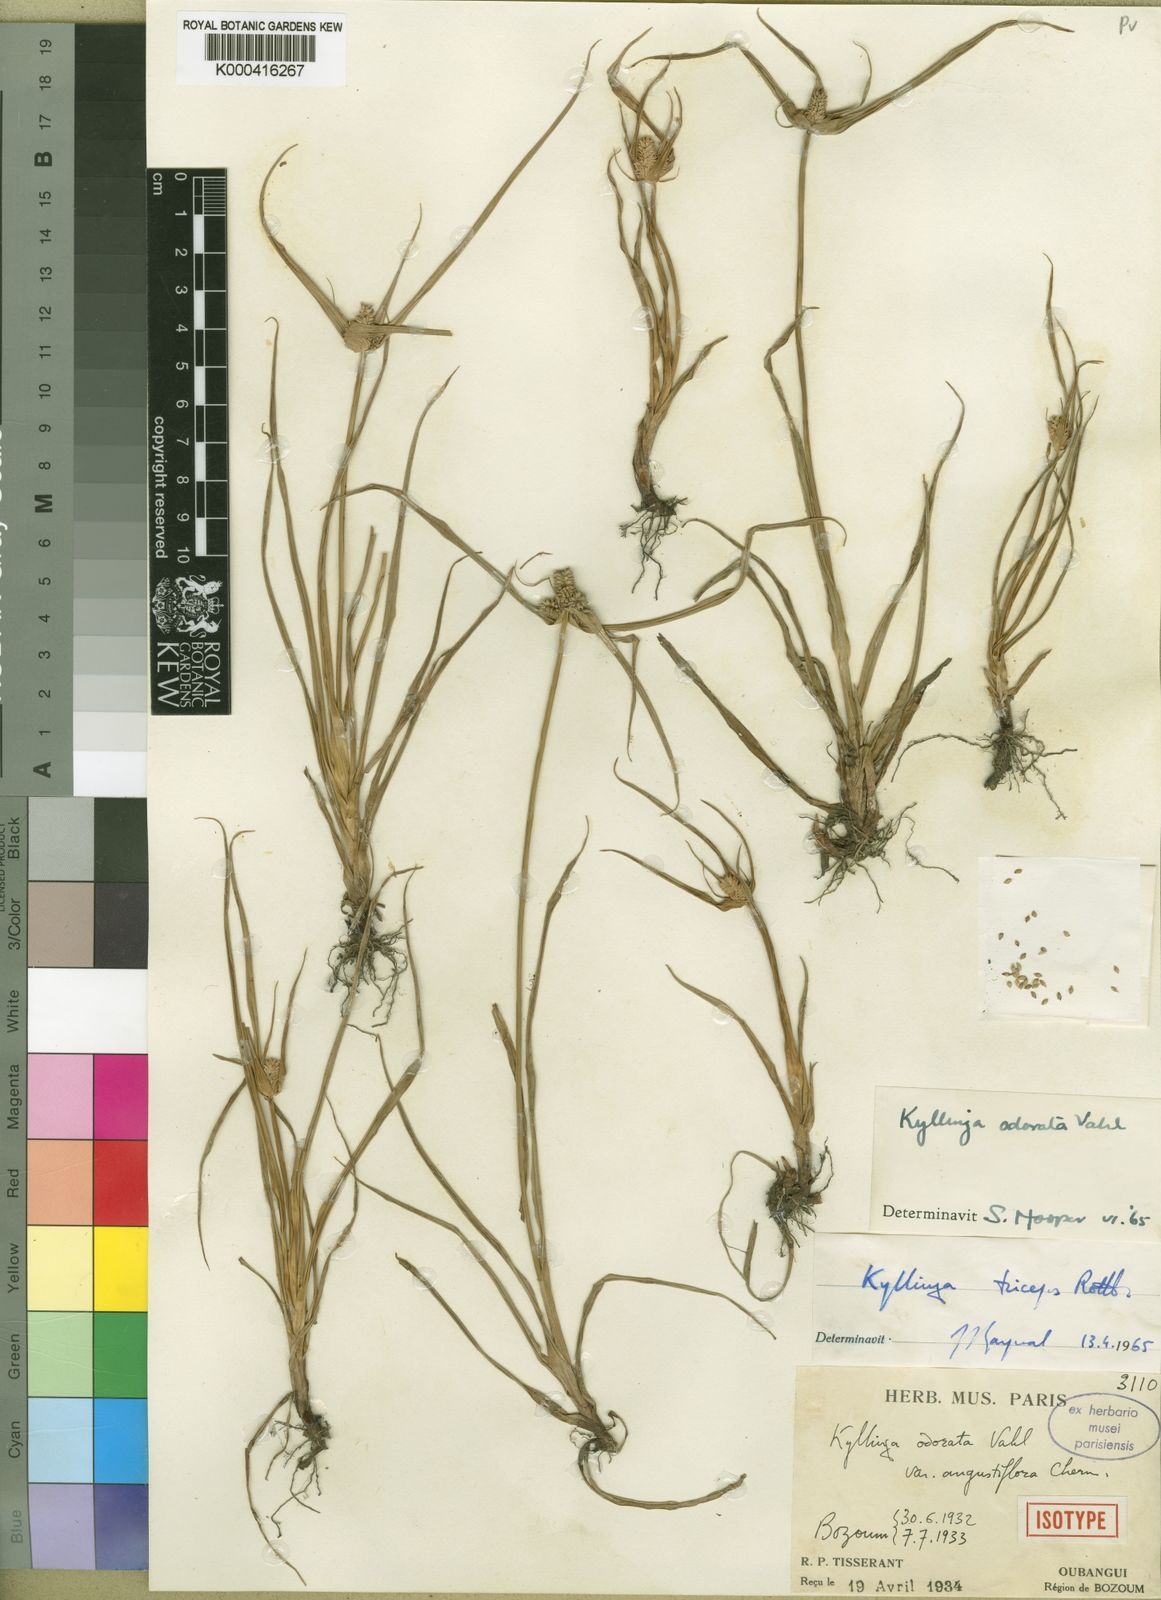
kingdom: Plantae
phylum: Tracheophyta
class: Liliopsida
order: Poales
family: Cyperaceae
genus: Cyperus
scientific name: Cyperus sesquiflorus
